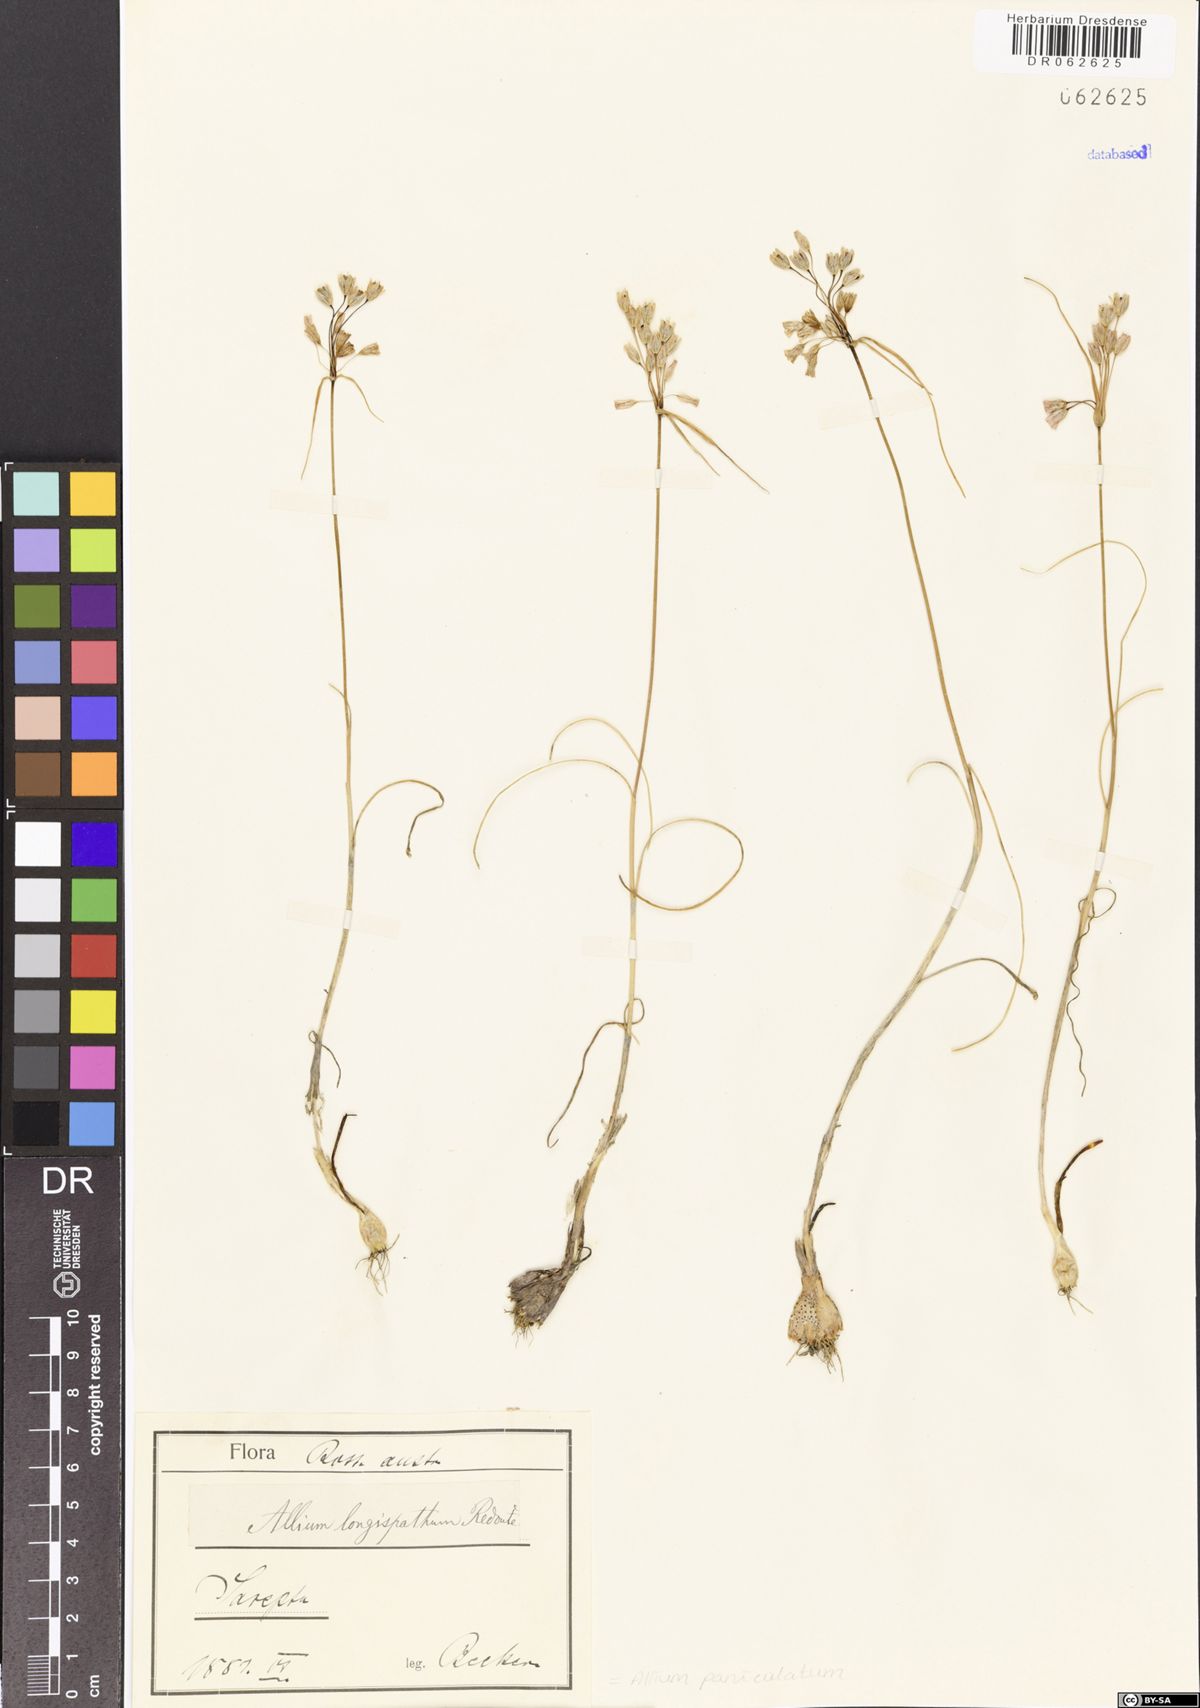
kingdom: Plantae
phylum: Tracheophyta
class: Liliopsida
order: Asparagales
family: Amaryllidaceae
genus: Allium
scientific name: Allium paniculatum
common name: Pale garlic
